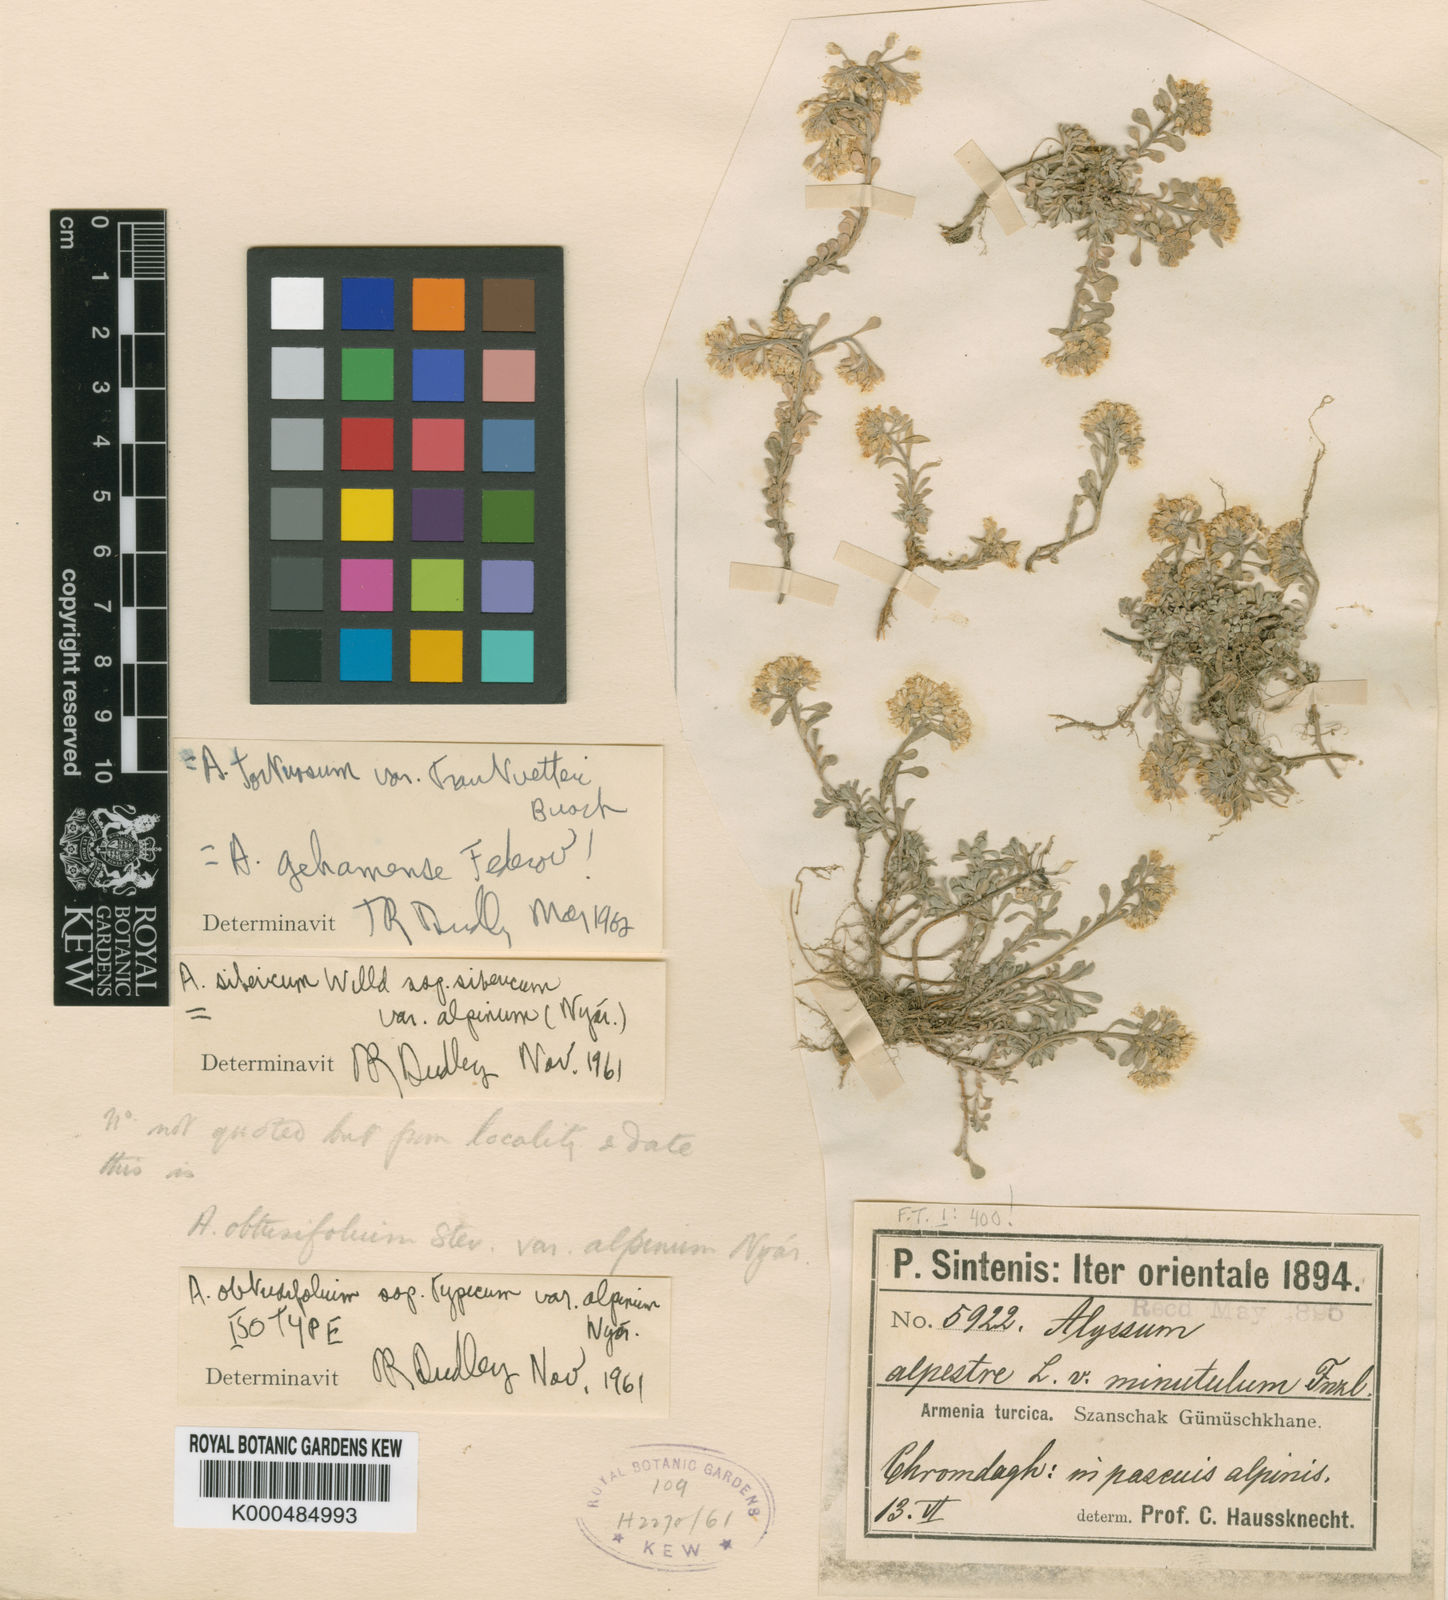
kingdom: Plantae
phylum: Tracheophyta
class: Magnoliopsida
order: Brassicales
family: Brassicaceae
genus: Odontarrhena
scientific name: Odontarrhena gehamensis
